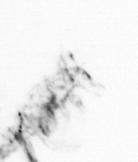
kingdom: Animalia
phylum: Arthropoda
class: Copepoda
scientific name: Copepoda
